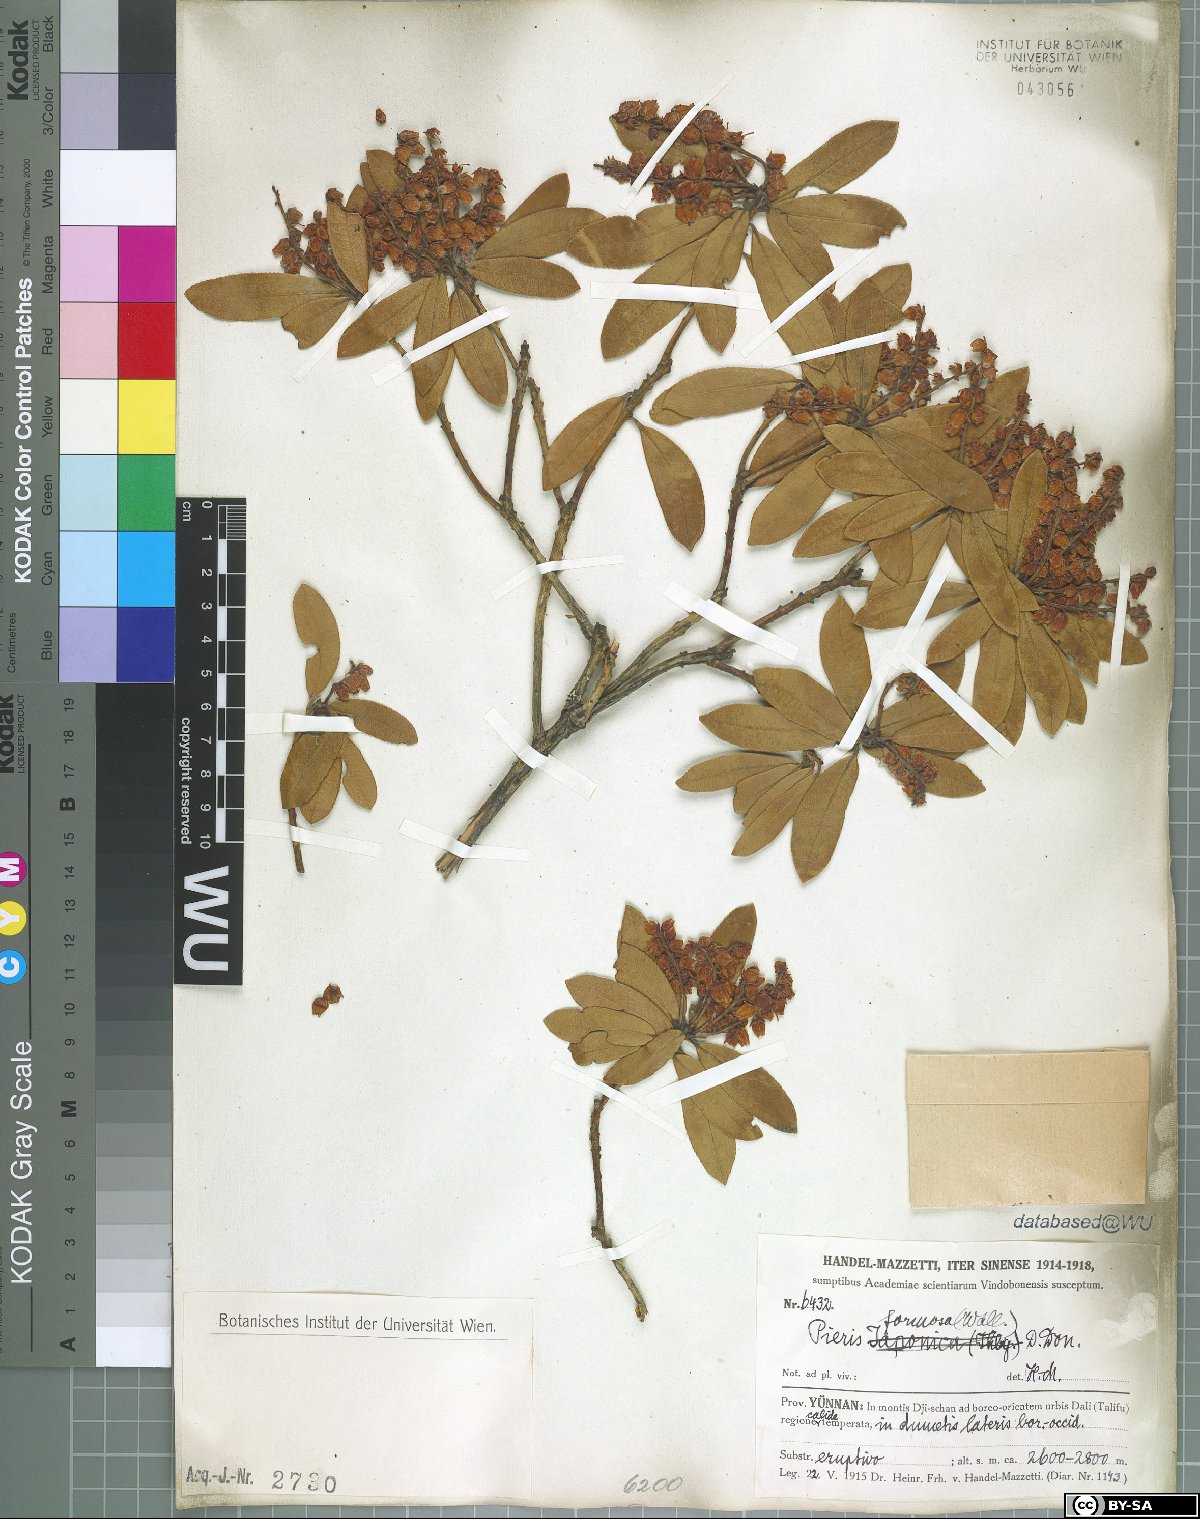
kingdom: Plantae
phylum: Tracheophyta
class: Magnoliopsida
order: Ericales
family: Ericaceae
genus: Pieris
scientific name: Pieris formosa
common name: Formosan pieris
